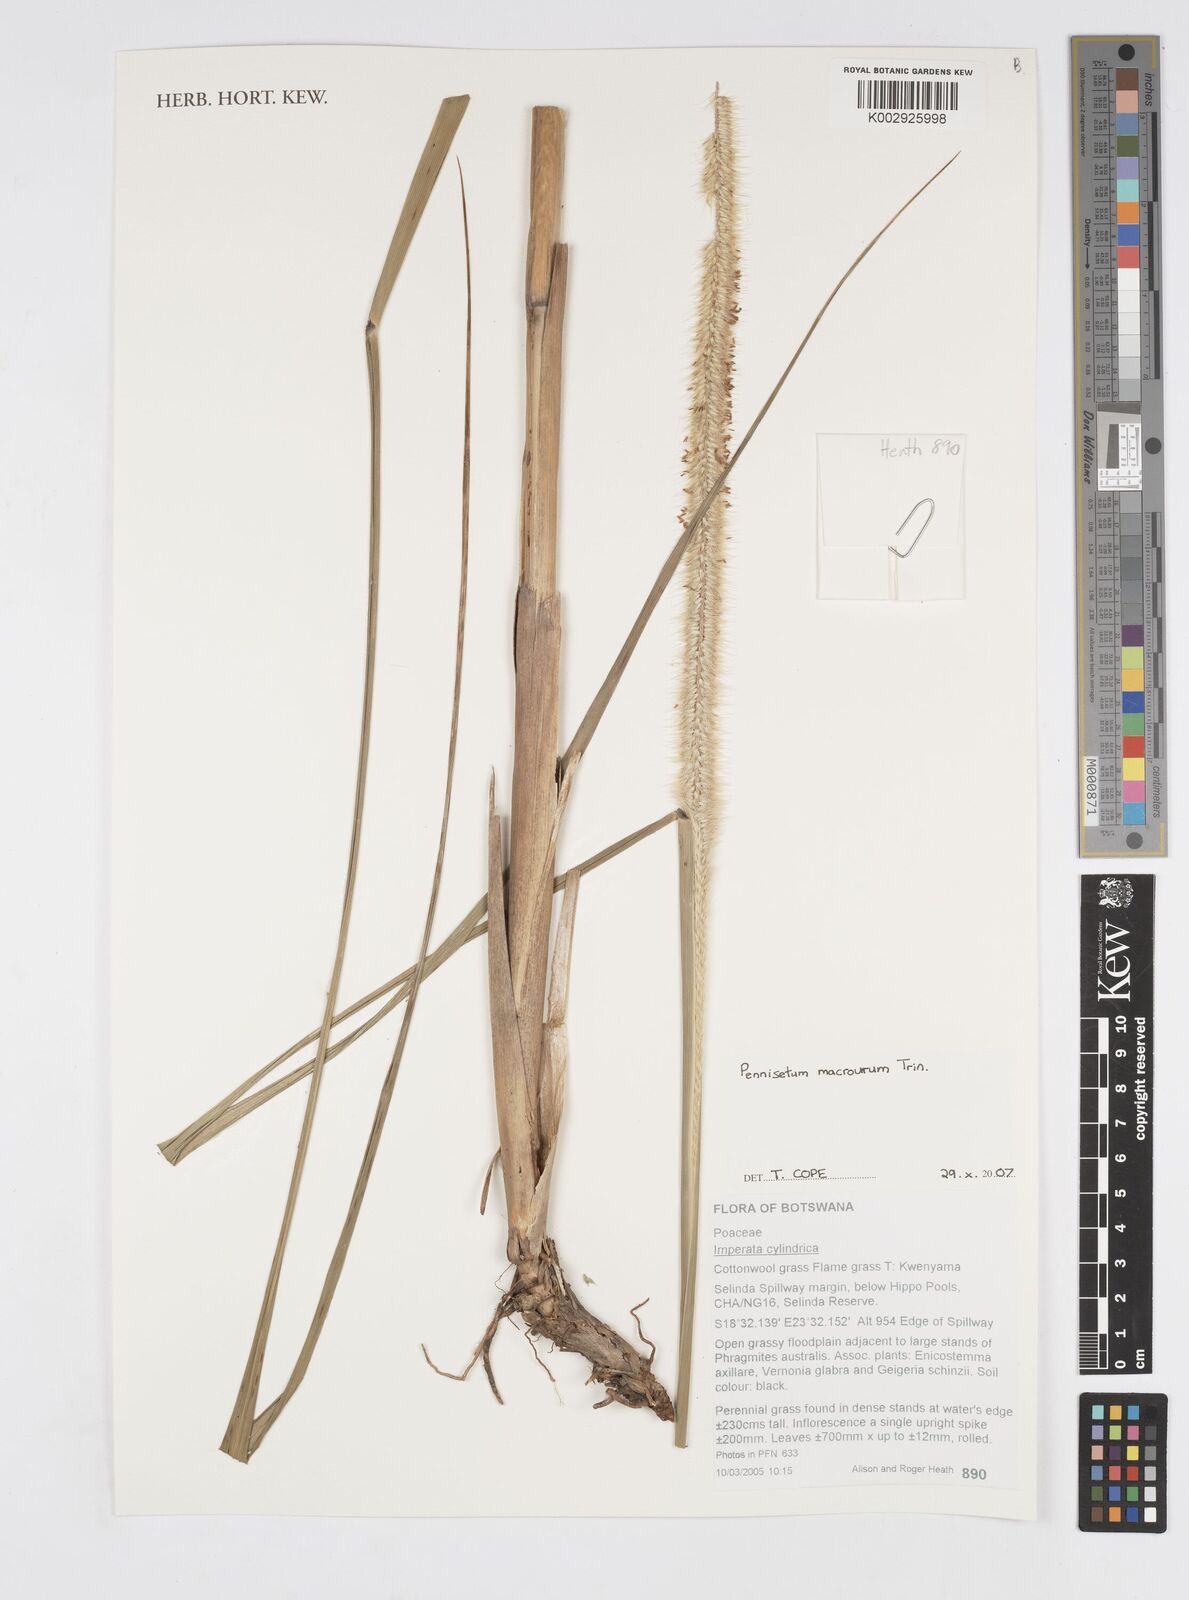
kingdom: Plantae
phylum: Tracheophyta
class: Liliopsida
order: Poales
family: Poaceae
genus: Cenchrus
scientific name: Cenchrus caudatus
